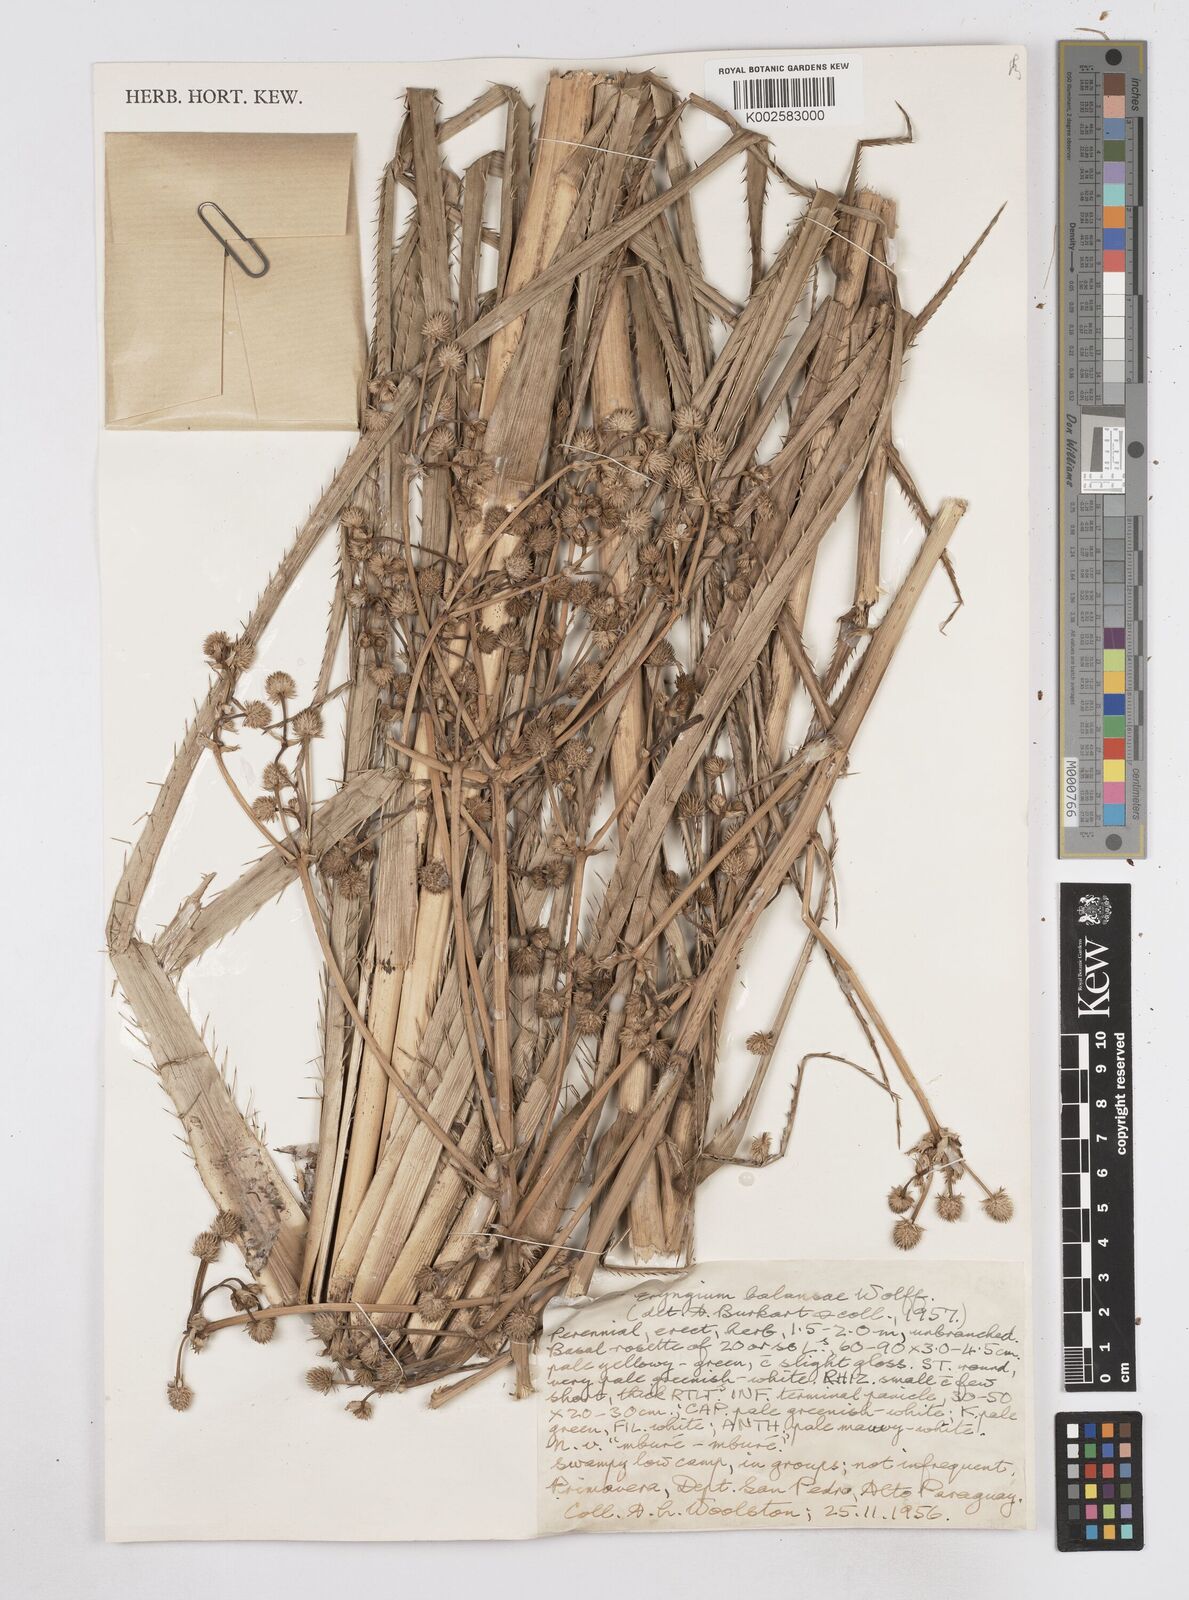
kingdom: Plantae
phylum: Tracheophyta
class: Magnoliopsida
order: Apiales
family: Apiaceae
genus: Eryngium
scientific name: Eryngium balansae
